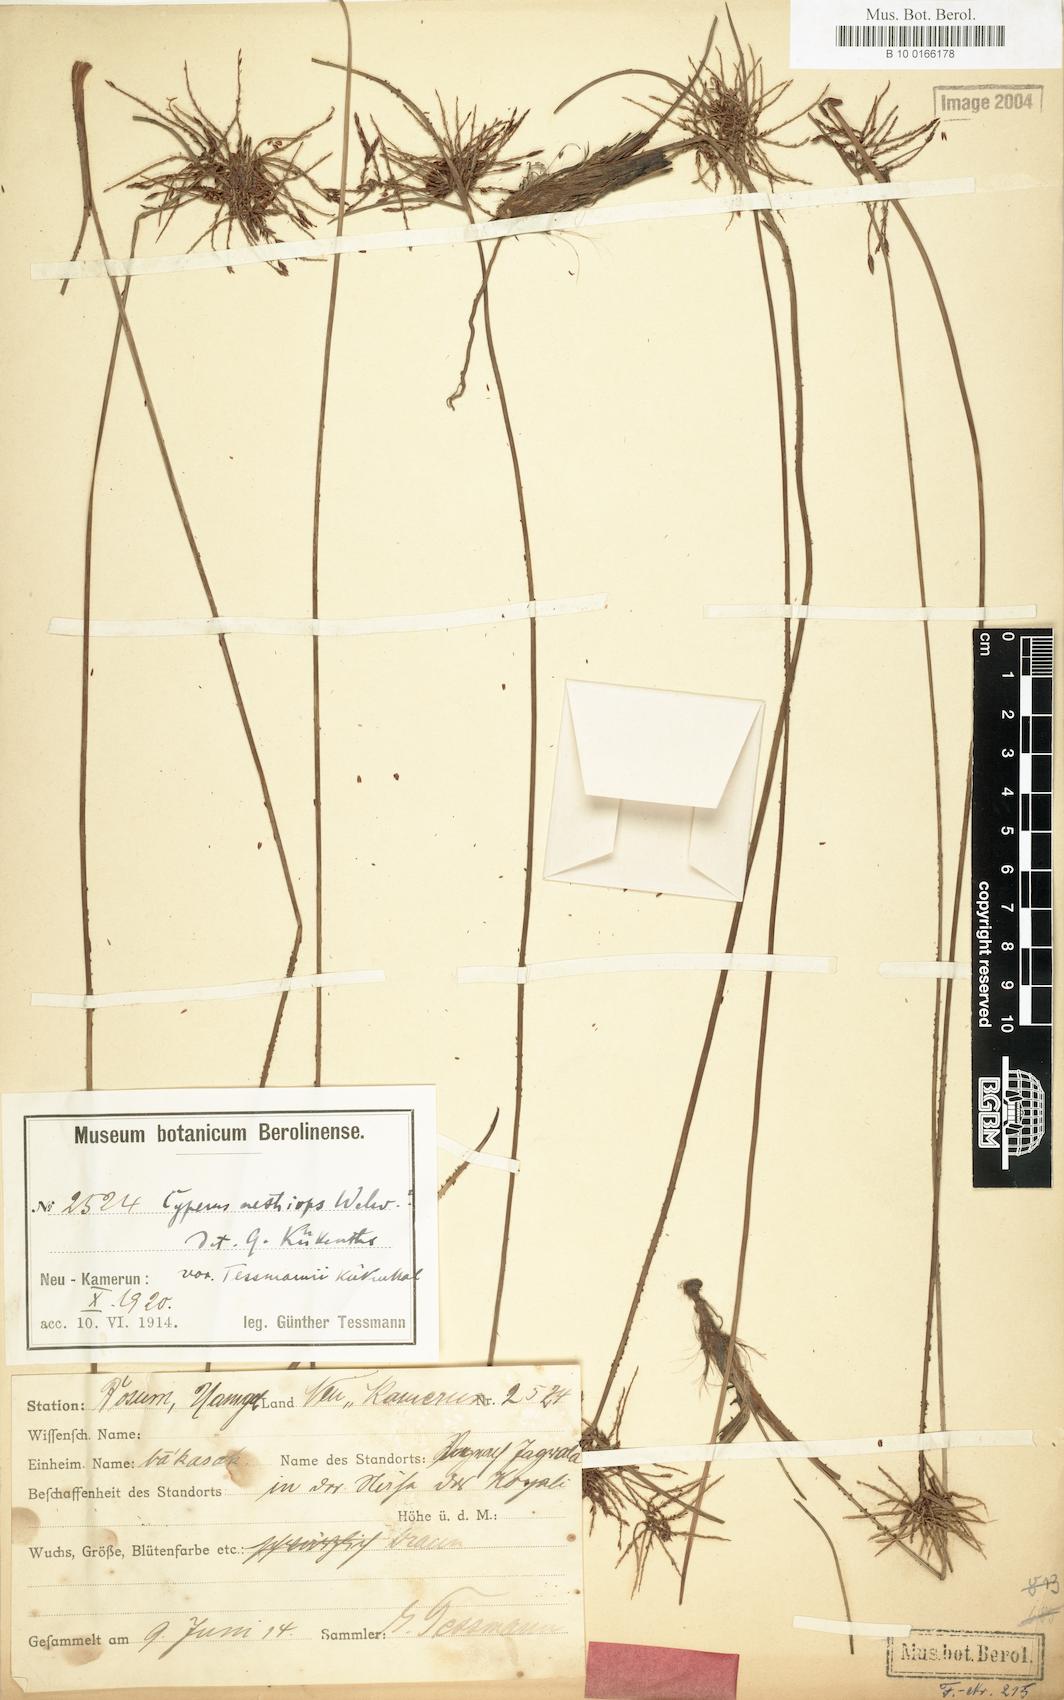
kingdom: Plantae
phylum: Tracheophyta
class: Liliopsida
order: Poales
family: Cyperaceae
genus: Cyperus
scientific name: Cyperus aethiops
